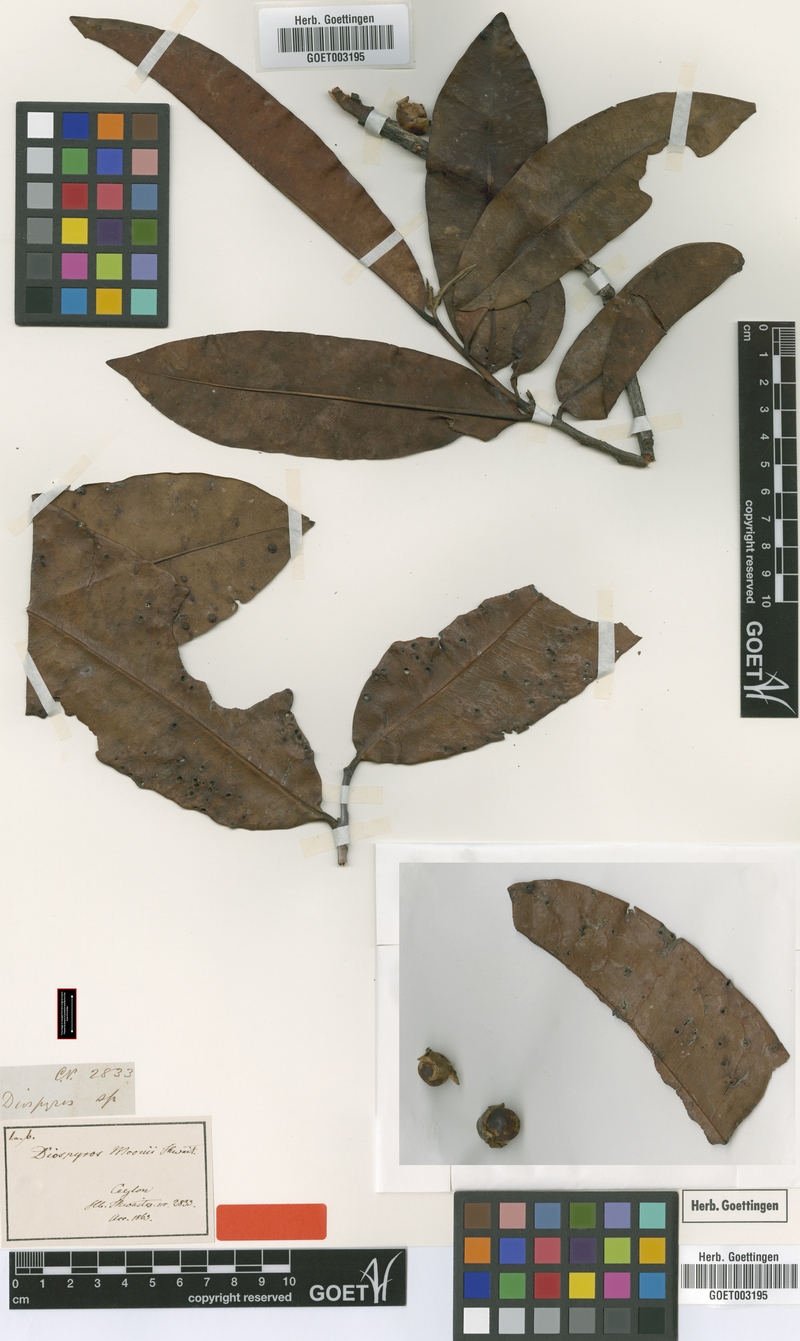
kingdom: Plantae
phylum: Tracheophyta
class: Magnoliopsida
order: Ericales
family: Ebenaceae
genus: Diospyros
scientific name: Diospyros moonii
